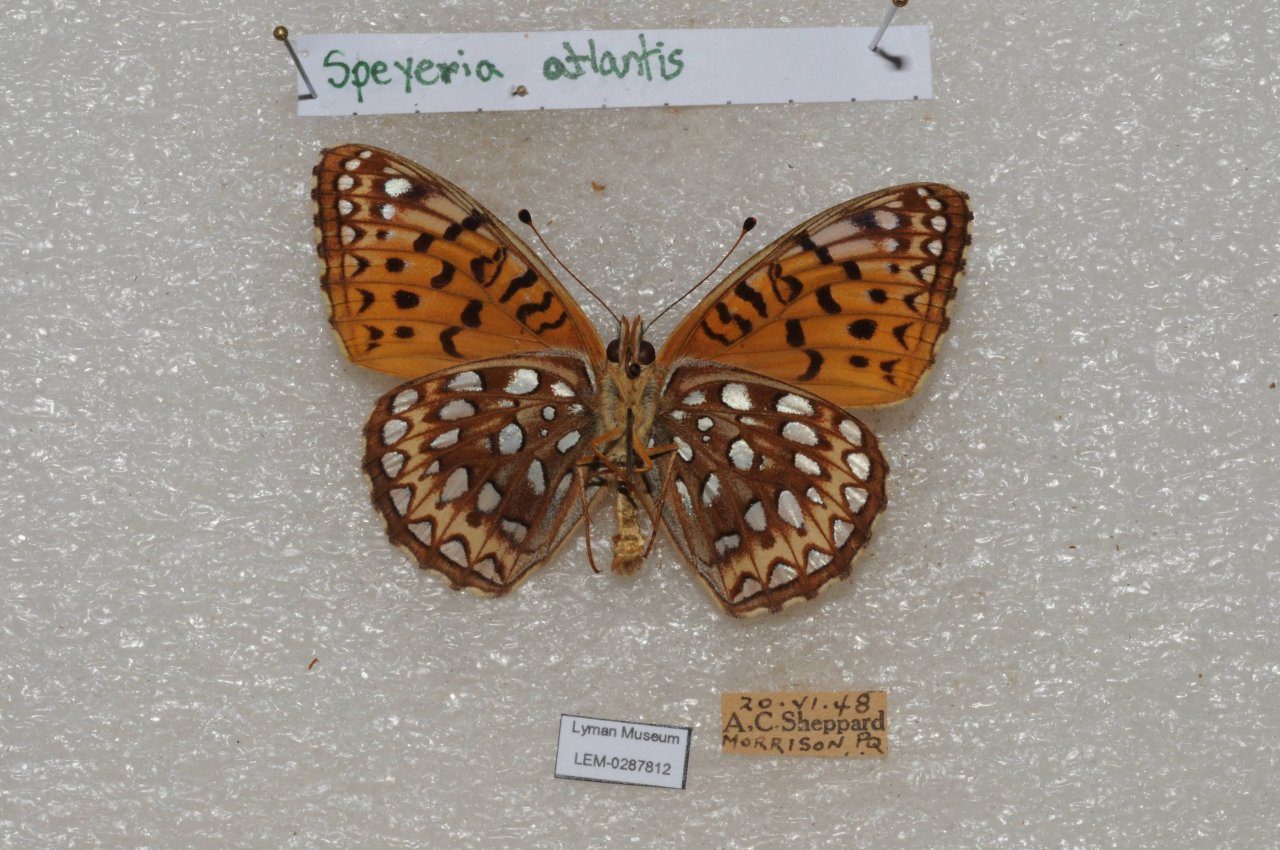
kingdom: Animalia
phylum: Arthropoda
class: Insecta
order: Lepidoptera
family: Nymphalidae
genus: Speyeria
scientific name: Speyeria atlantis
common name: Atlantis Fritillary
